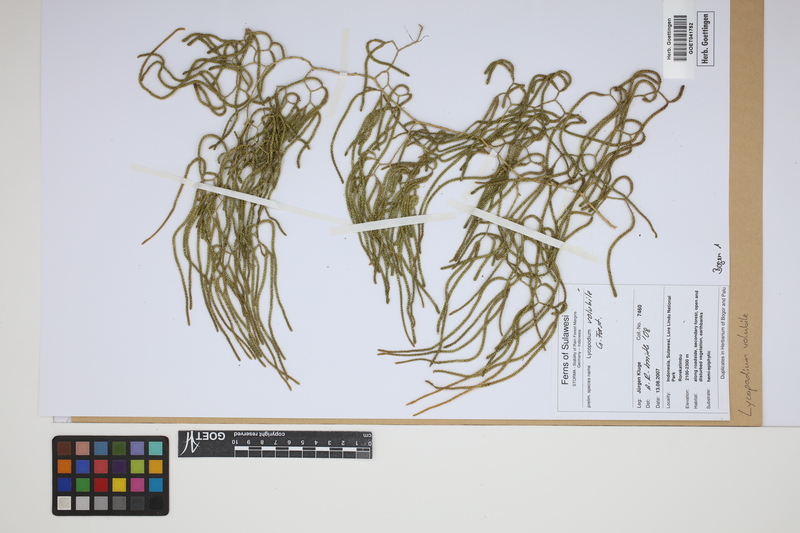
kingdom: Plantae
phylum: Tracheophyta
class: Lycopodiopsida
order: Lycopodiales
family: Lycopodiaceae
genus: Pseudodiphasium
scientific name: Pseudodiphasium volubile
